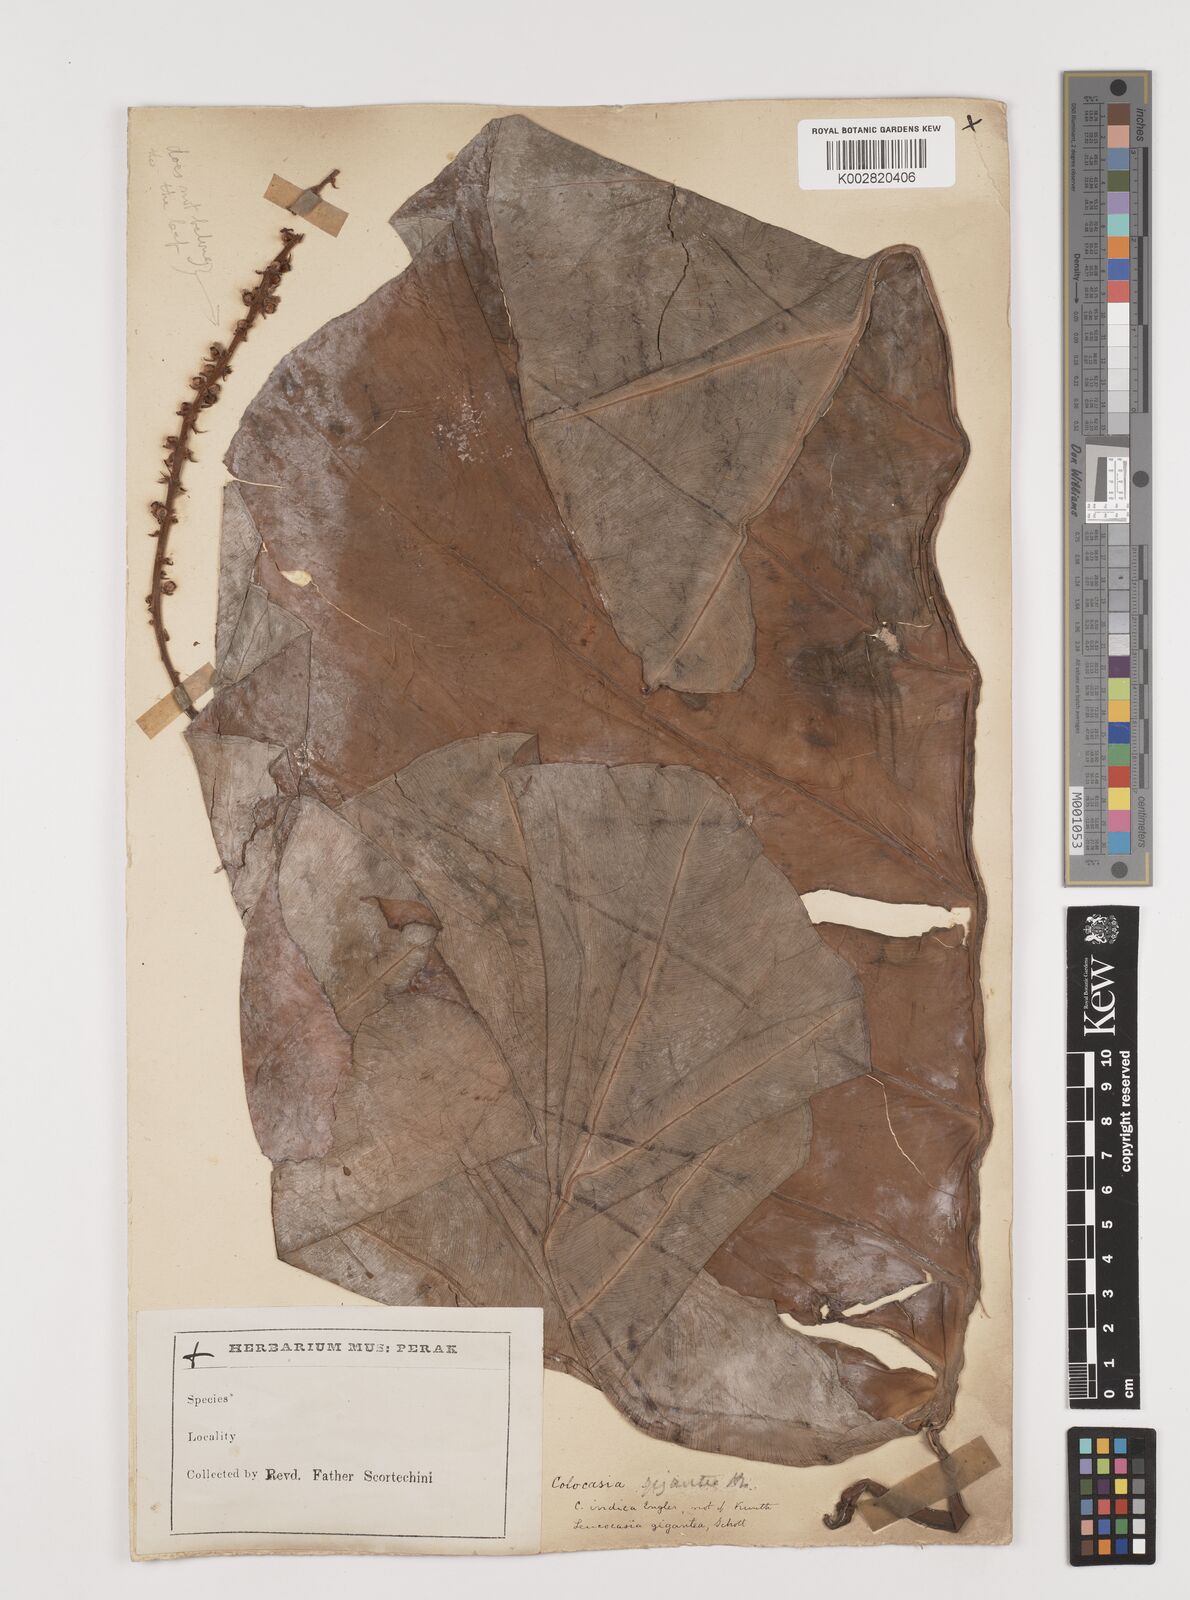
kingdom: Plantae
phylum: Tracheophyta
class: Liliopsida
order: Alismatales
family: Araceae
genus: Leucocasia
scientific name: Leucocasia gigantea
